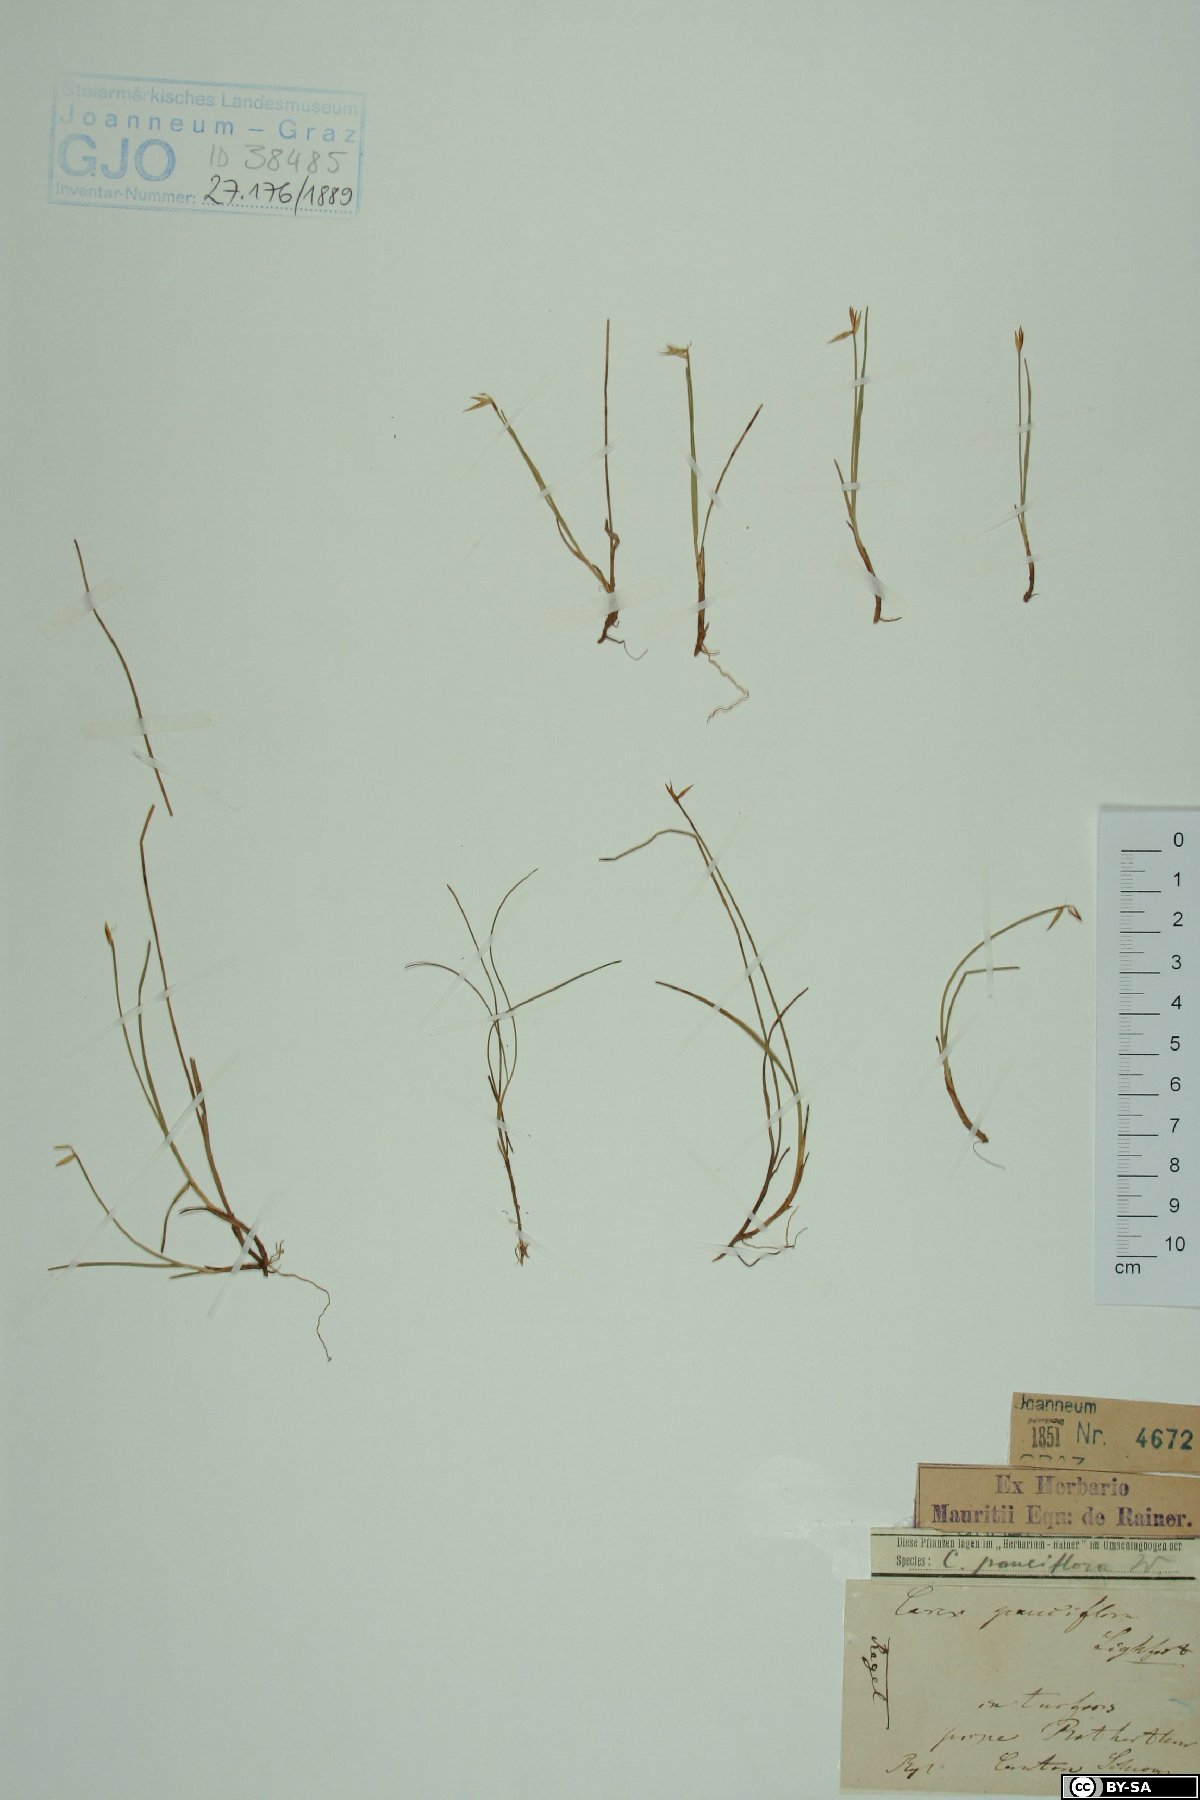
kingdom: Plantae
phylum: Tracheophyta
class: Liliopsida
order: Poales
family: Cyperaceae
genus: Carex
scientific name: Carex pauciflora
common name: Few-flowered sedge
